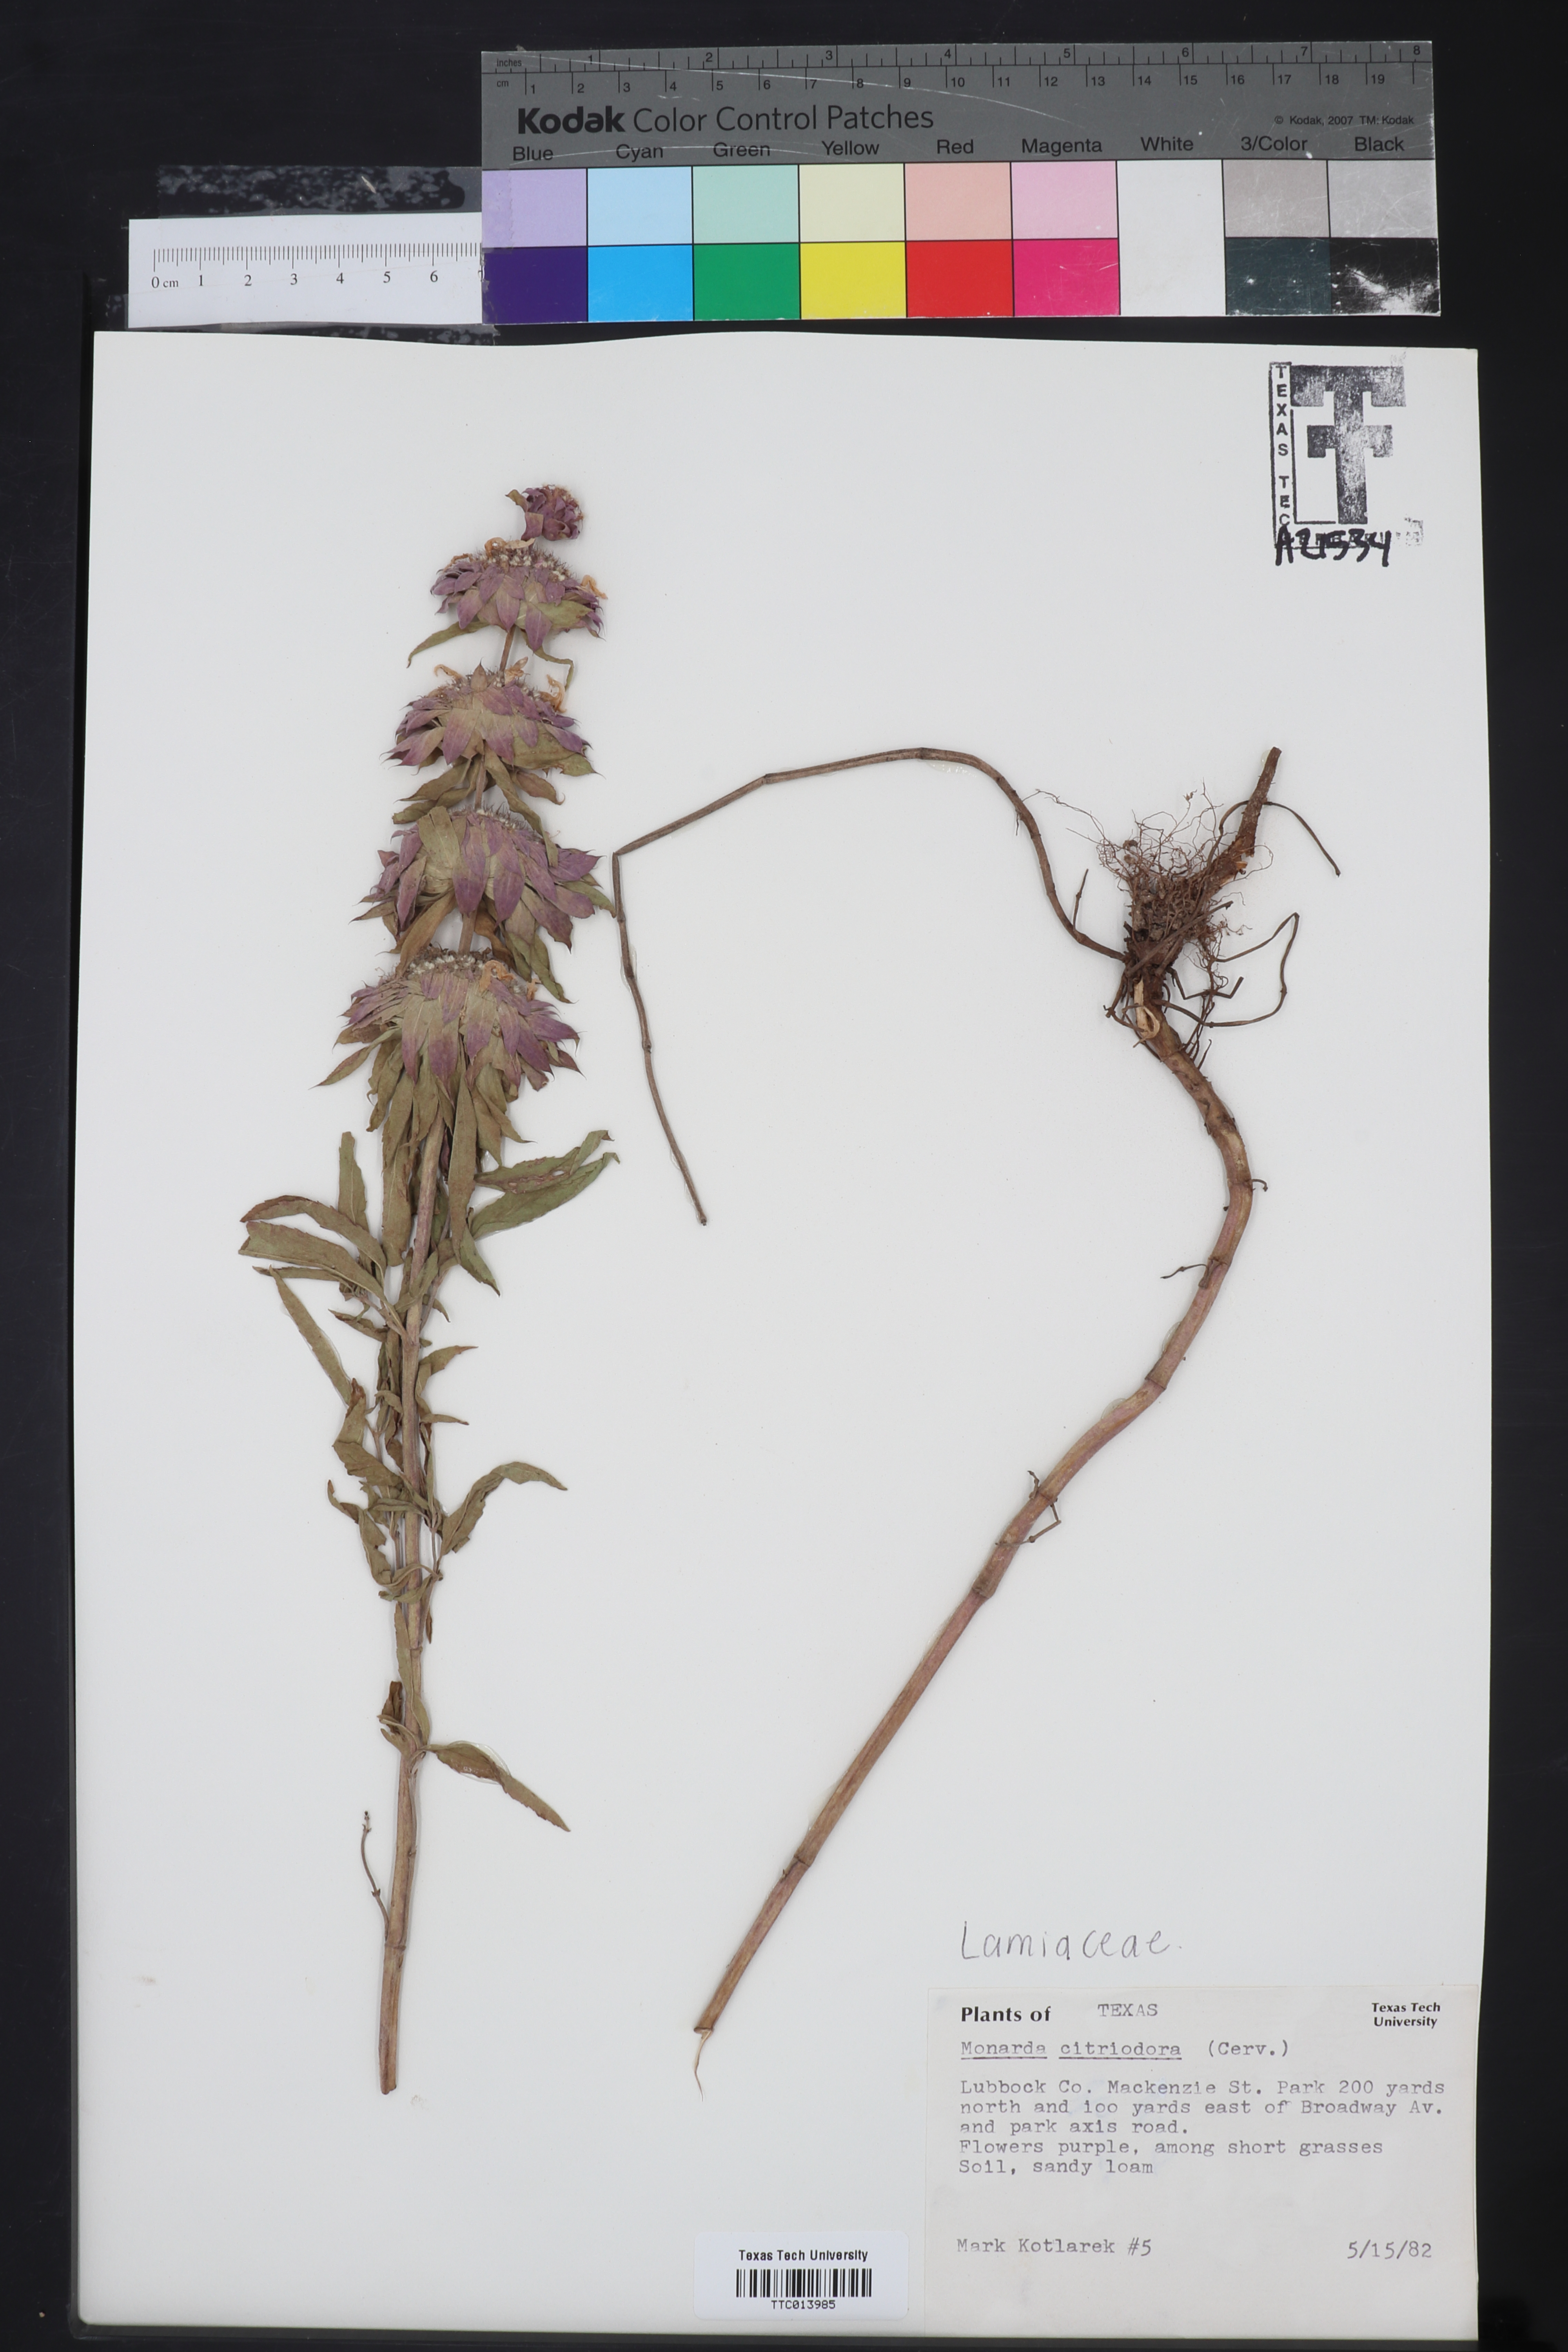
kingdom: Plantae
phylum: Tracheophyta
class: Magnoliopsida
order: Lamiales
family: Lamiaceae
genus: Monarda
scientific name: Monarda citriodora
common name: Lemon beebalm
